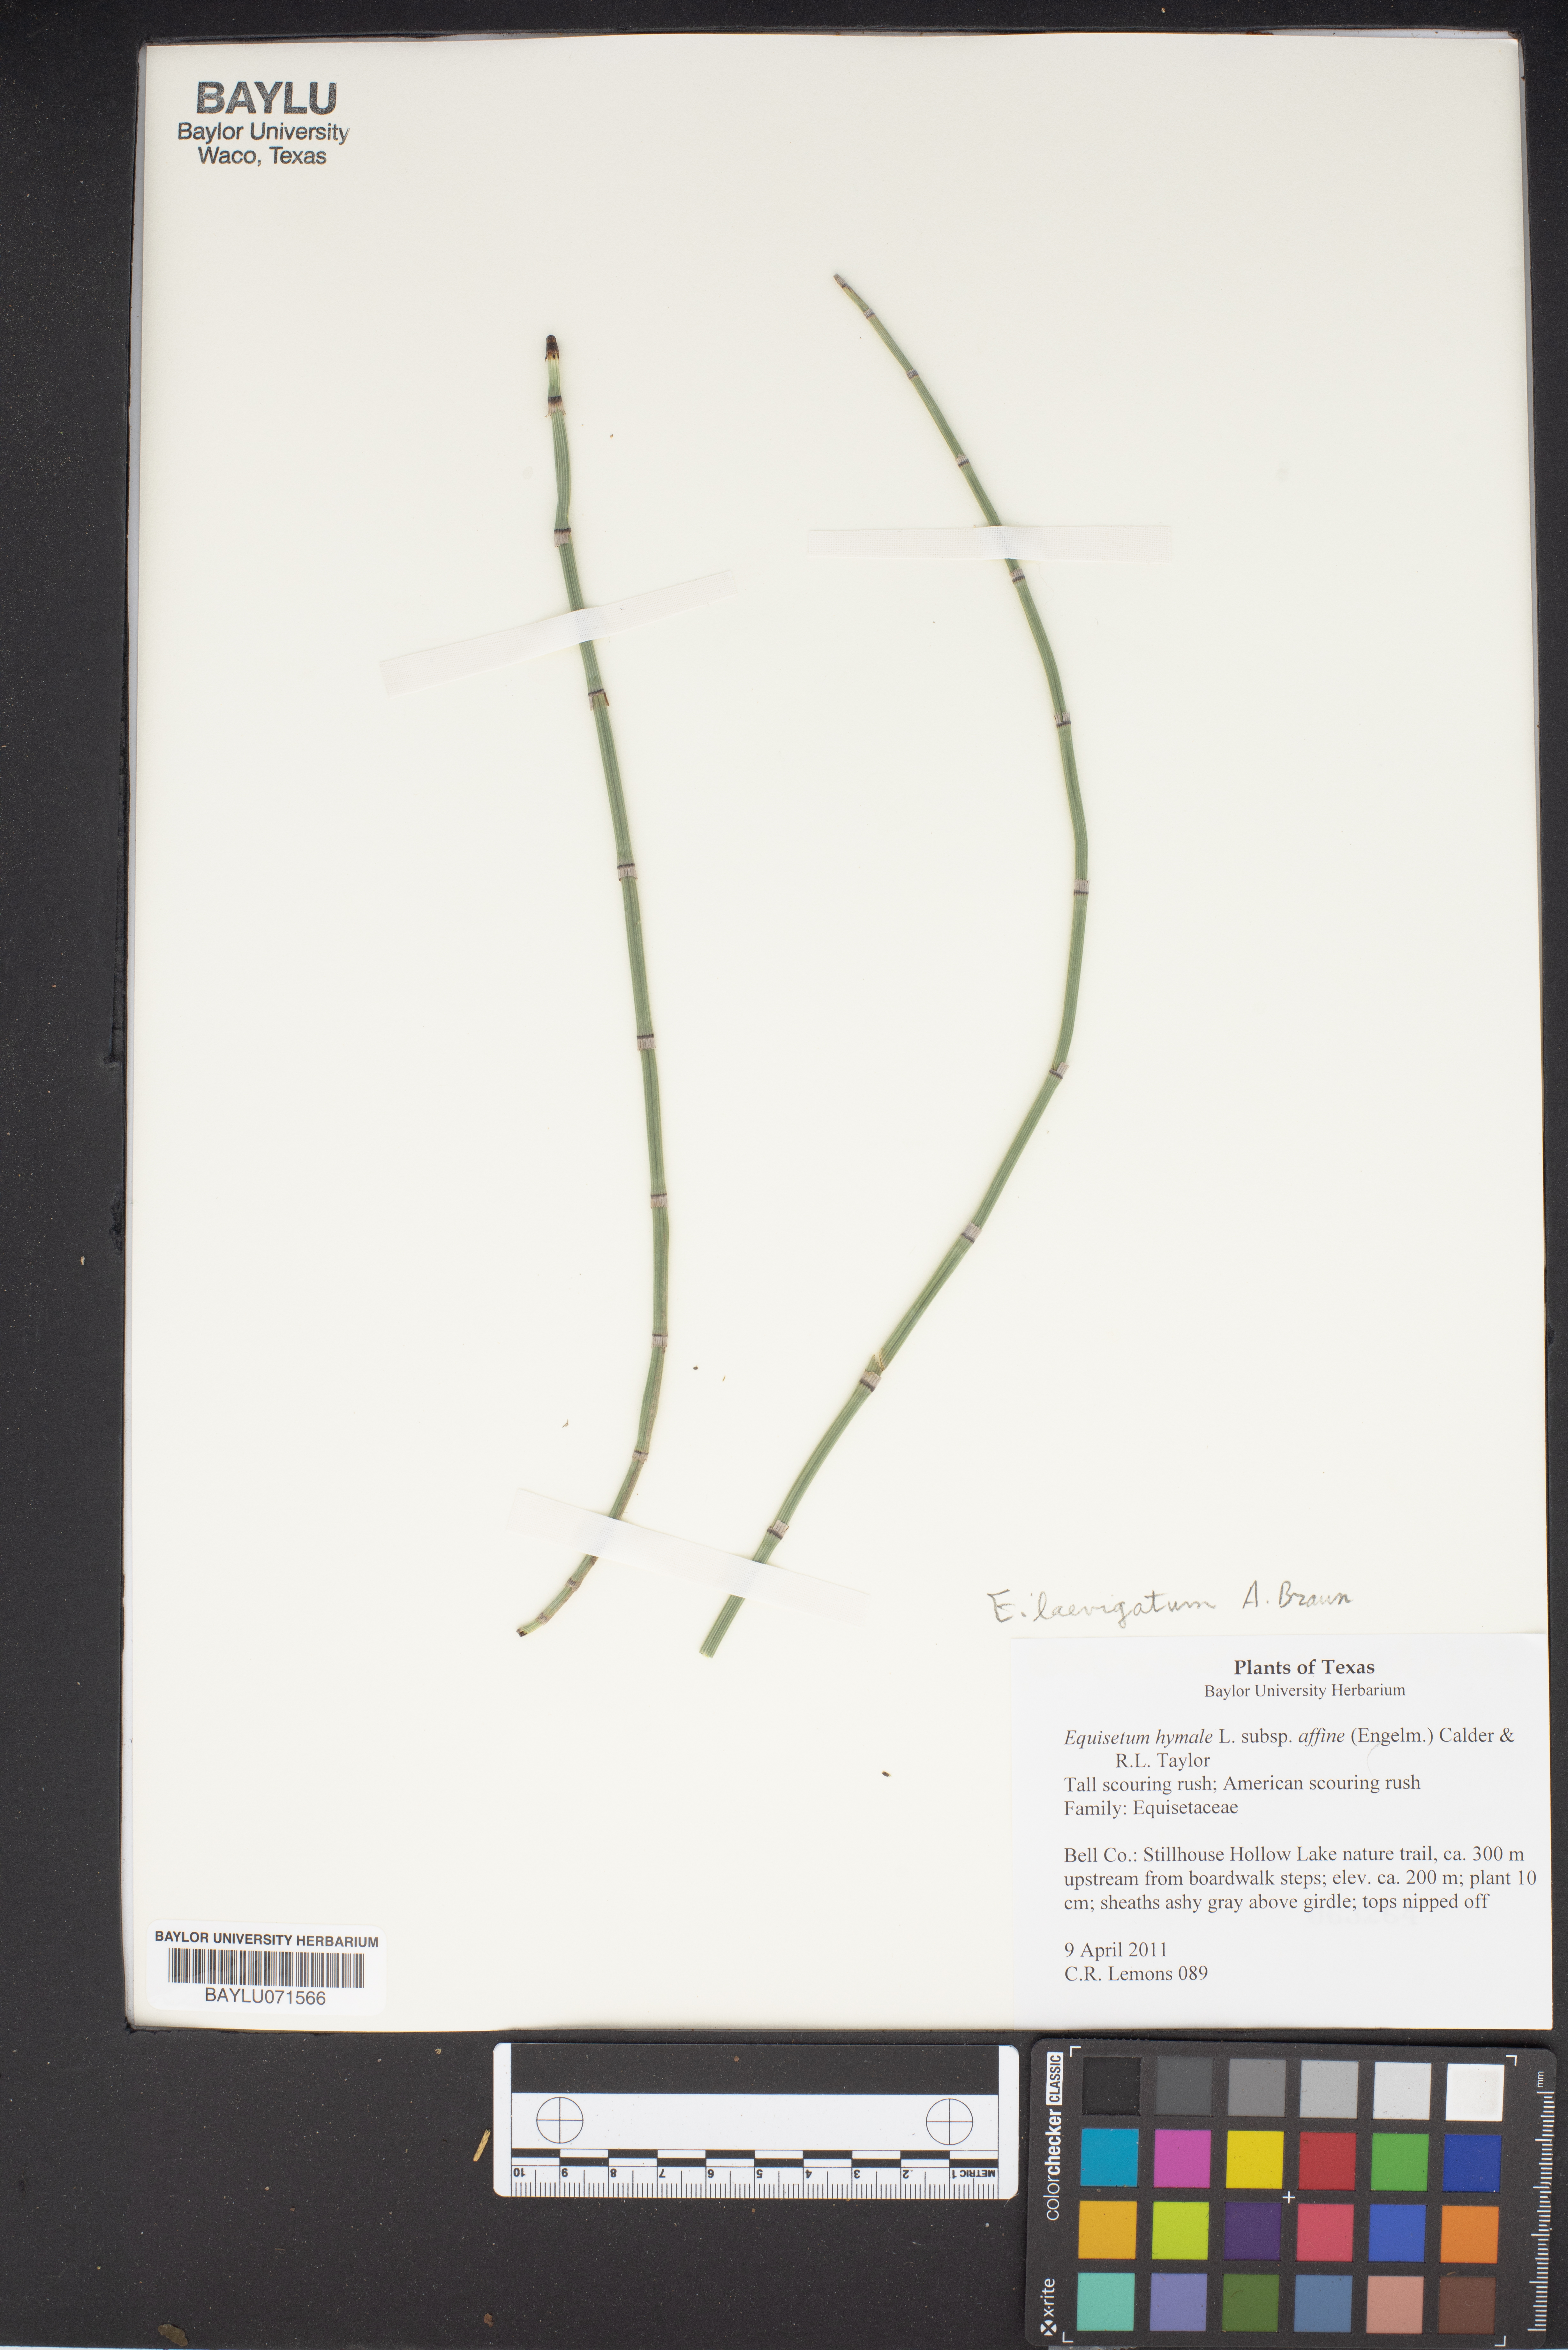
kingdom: Plantae
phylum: Tracheophyta
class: Polypodiopsida
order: Equisetales
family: Equisetaceae
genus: Equisetum
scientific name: Equisetum praealtum
